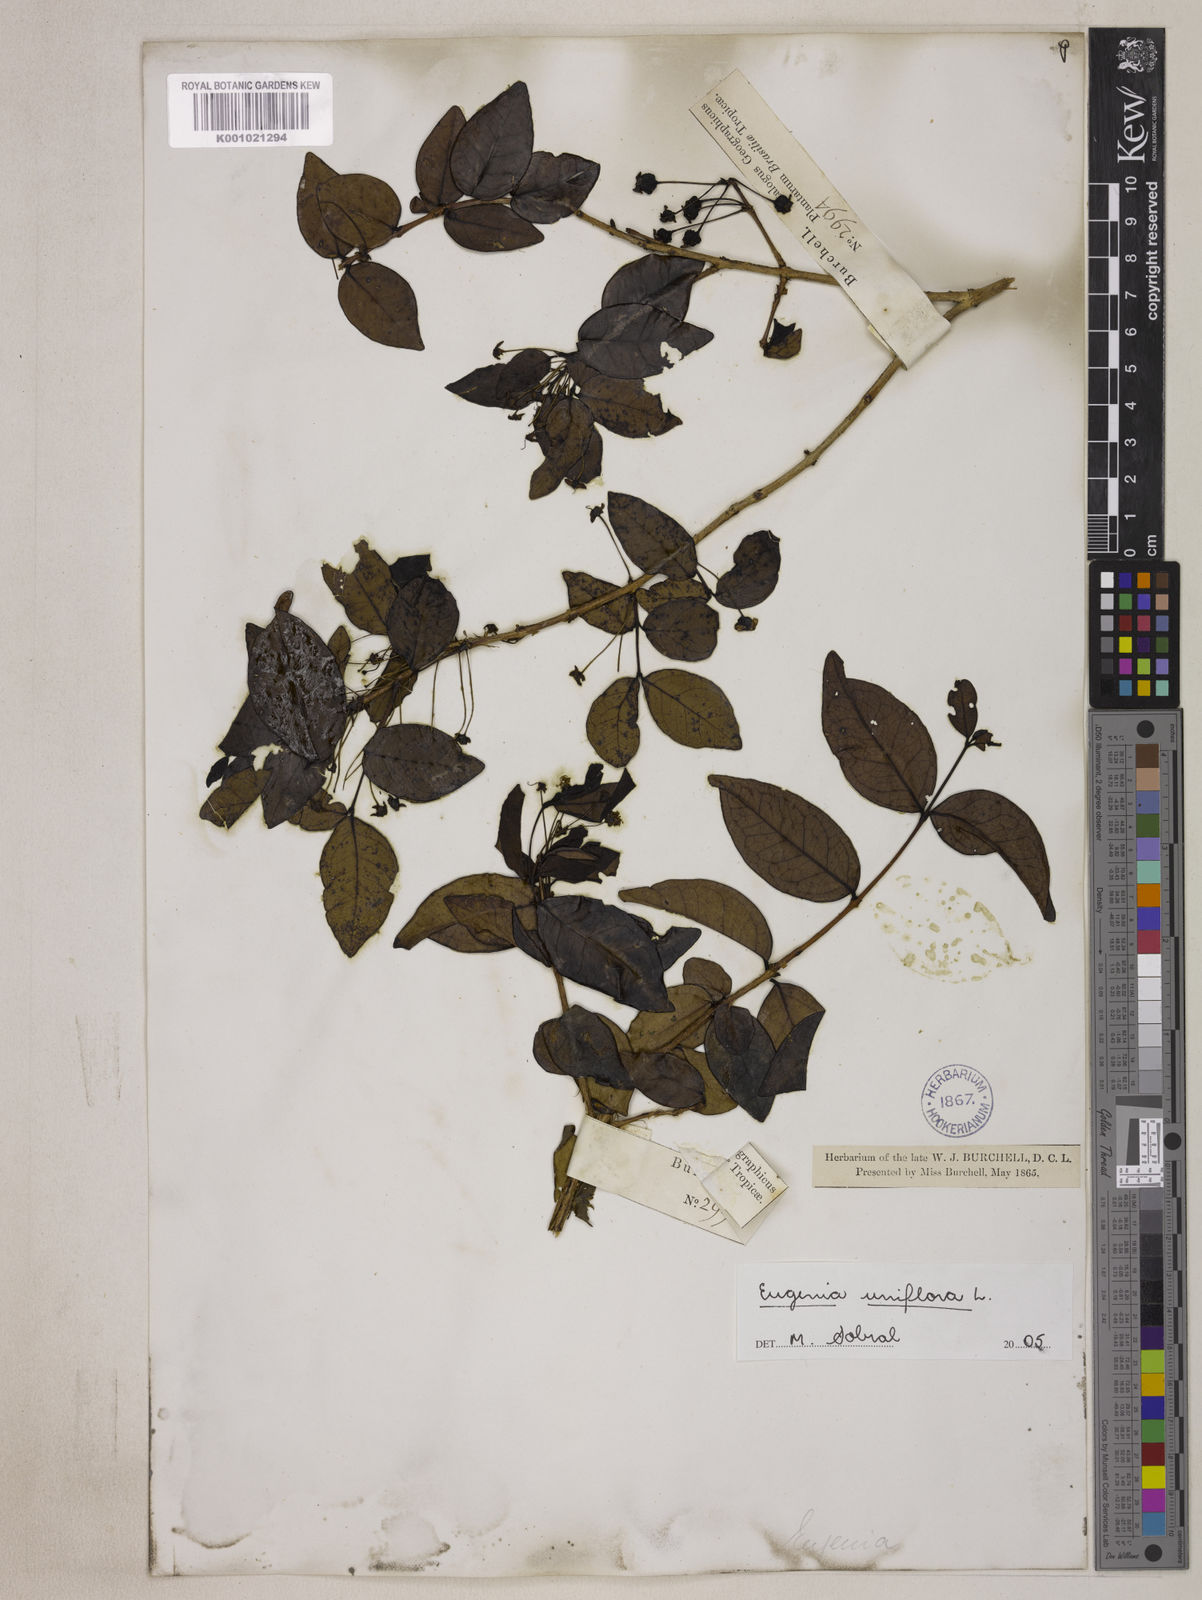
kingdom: Plantae
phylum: Tracheophyta
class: Magnoliopsida
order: Myrtales
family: Myrtaceae
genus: Eugenia
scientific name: Eugenia uniflora
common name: Surinam cherry
